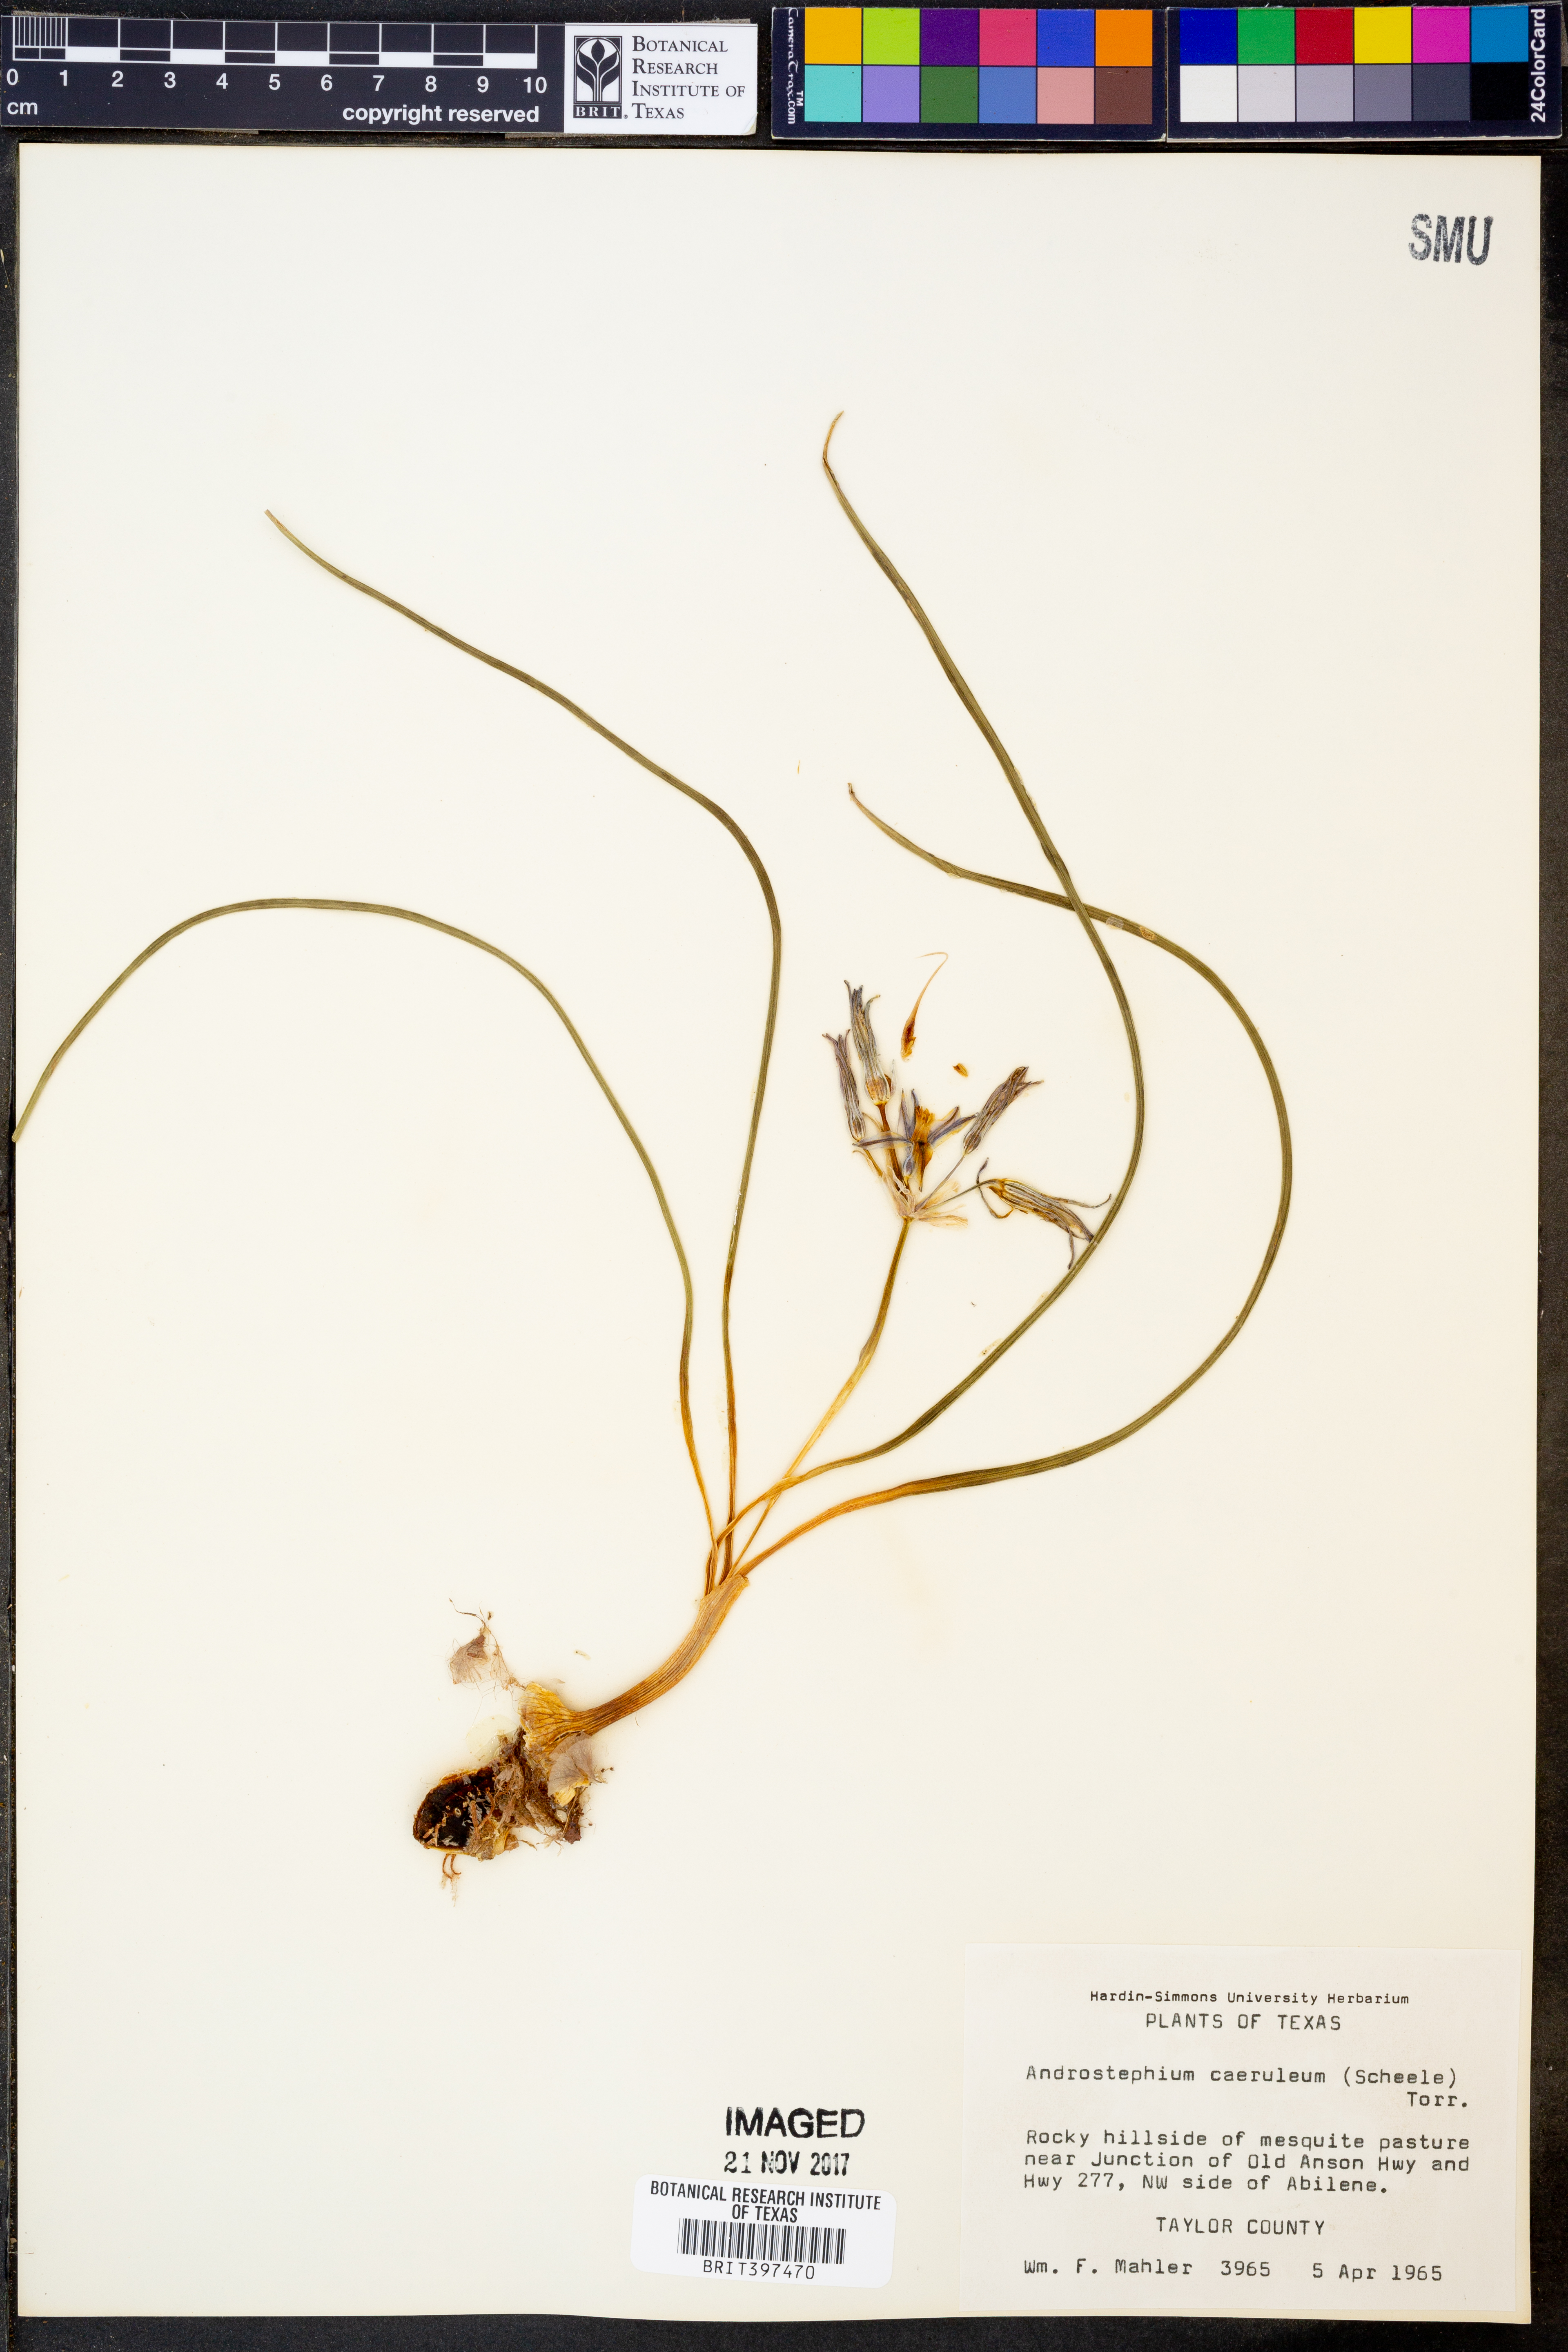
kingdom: Plantae
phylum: Tracheophyta
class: Liliopsida
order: Asparagales
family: Asparagaceae
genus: Androstephium
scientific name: Androstephium caeruleum
